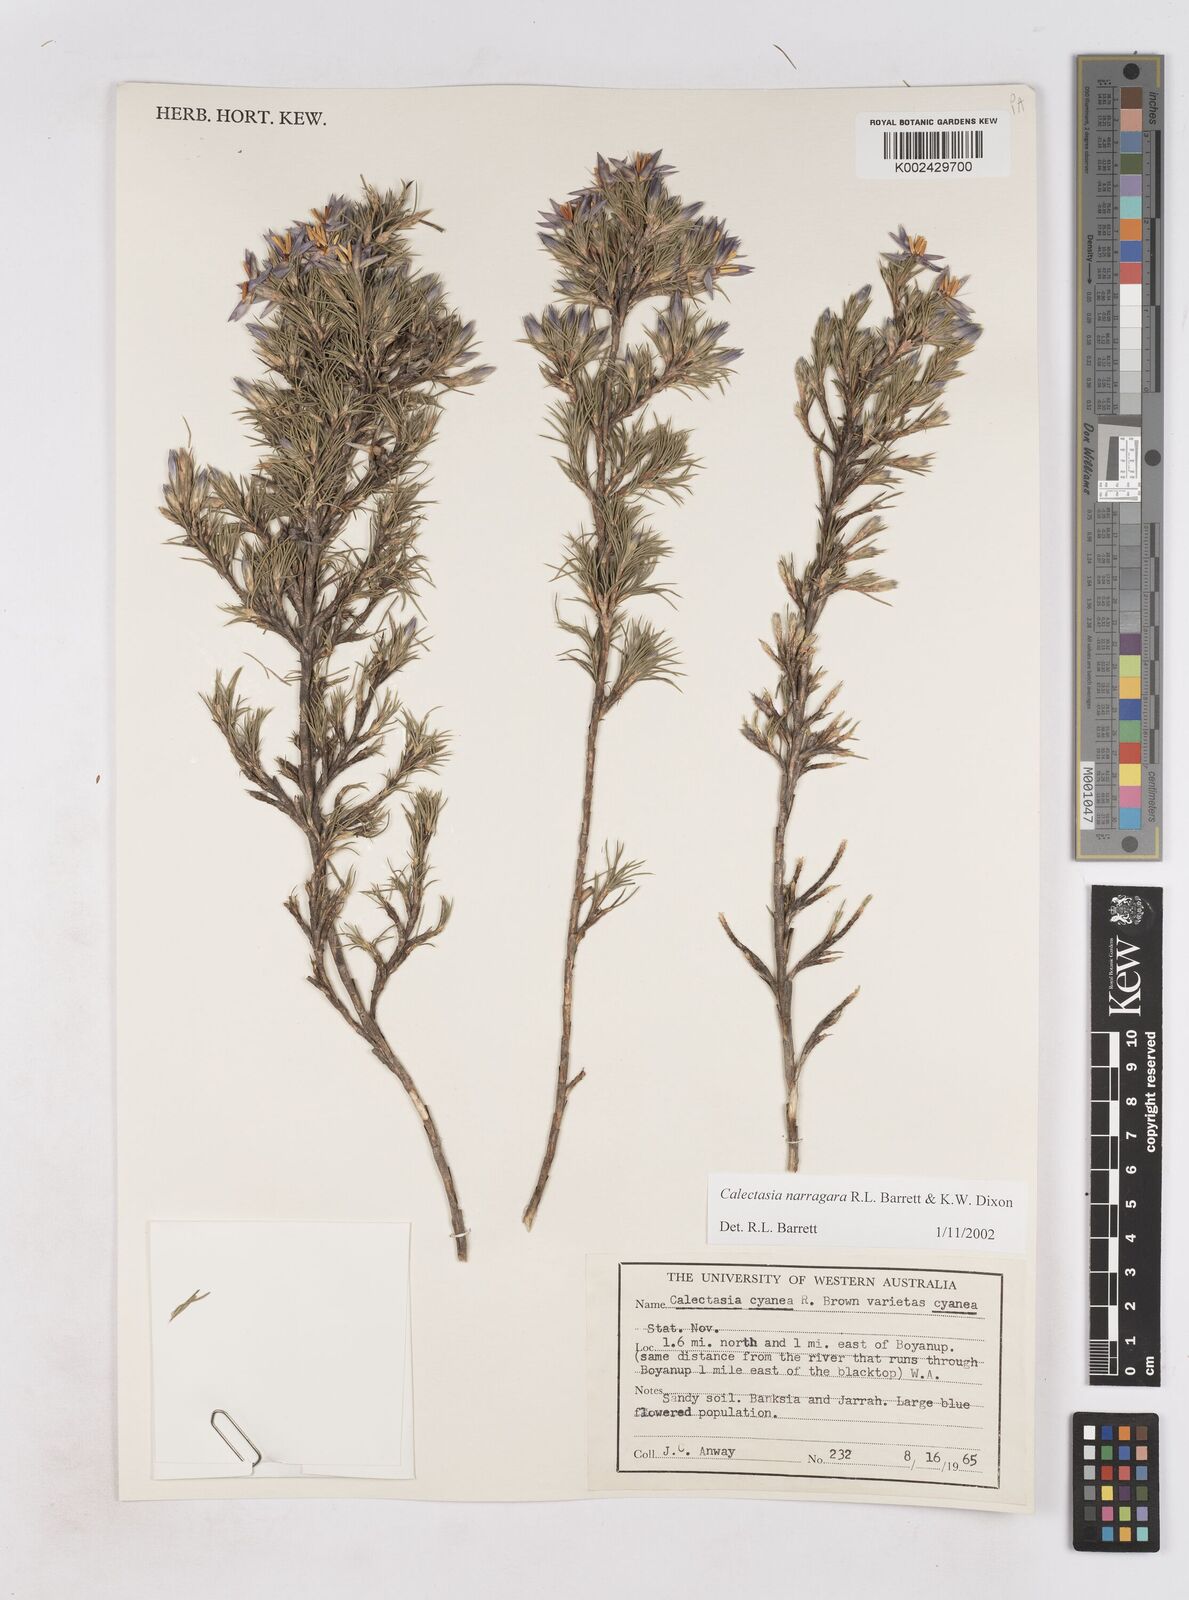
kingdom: Plantae
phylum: Tracheophyta
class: Liliopsida
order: Arecales
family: Dasypogonaceae
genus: Calectasia
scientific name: Calectasia narragara
